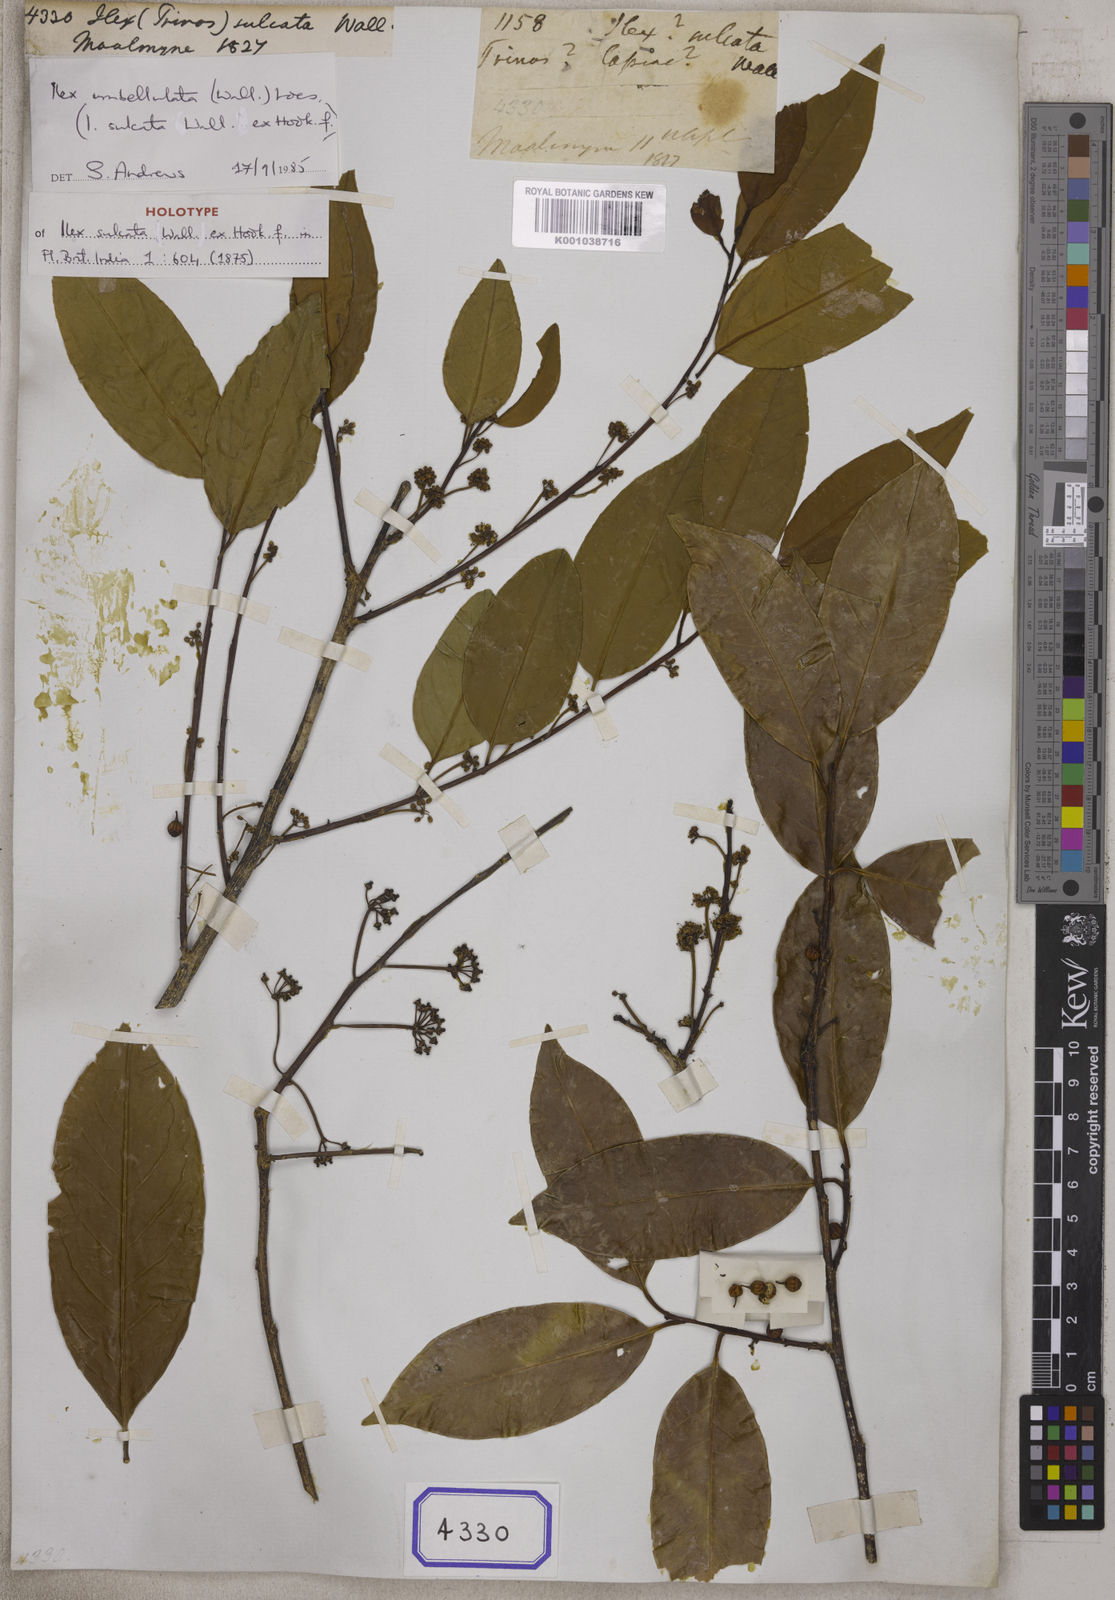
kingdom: Plantae
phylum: Tracheophyta
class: Magnoliopsida
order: Aquifoliales
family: Aquifoliaceae
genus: Ilex
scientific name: Ilex
